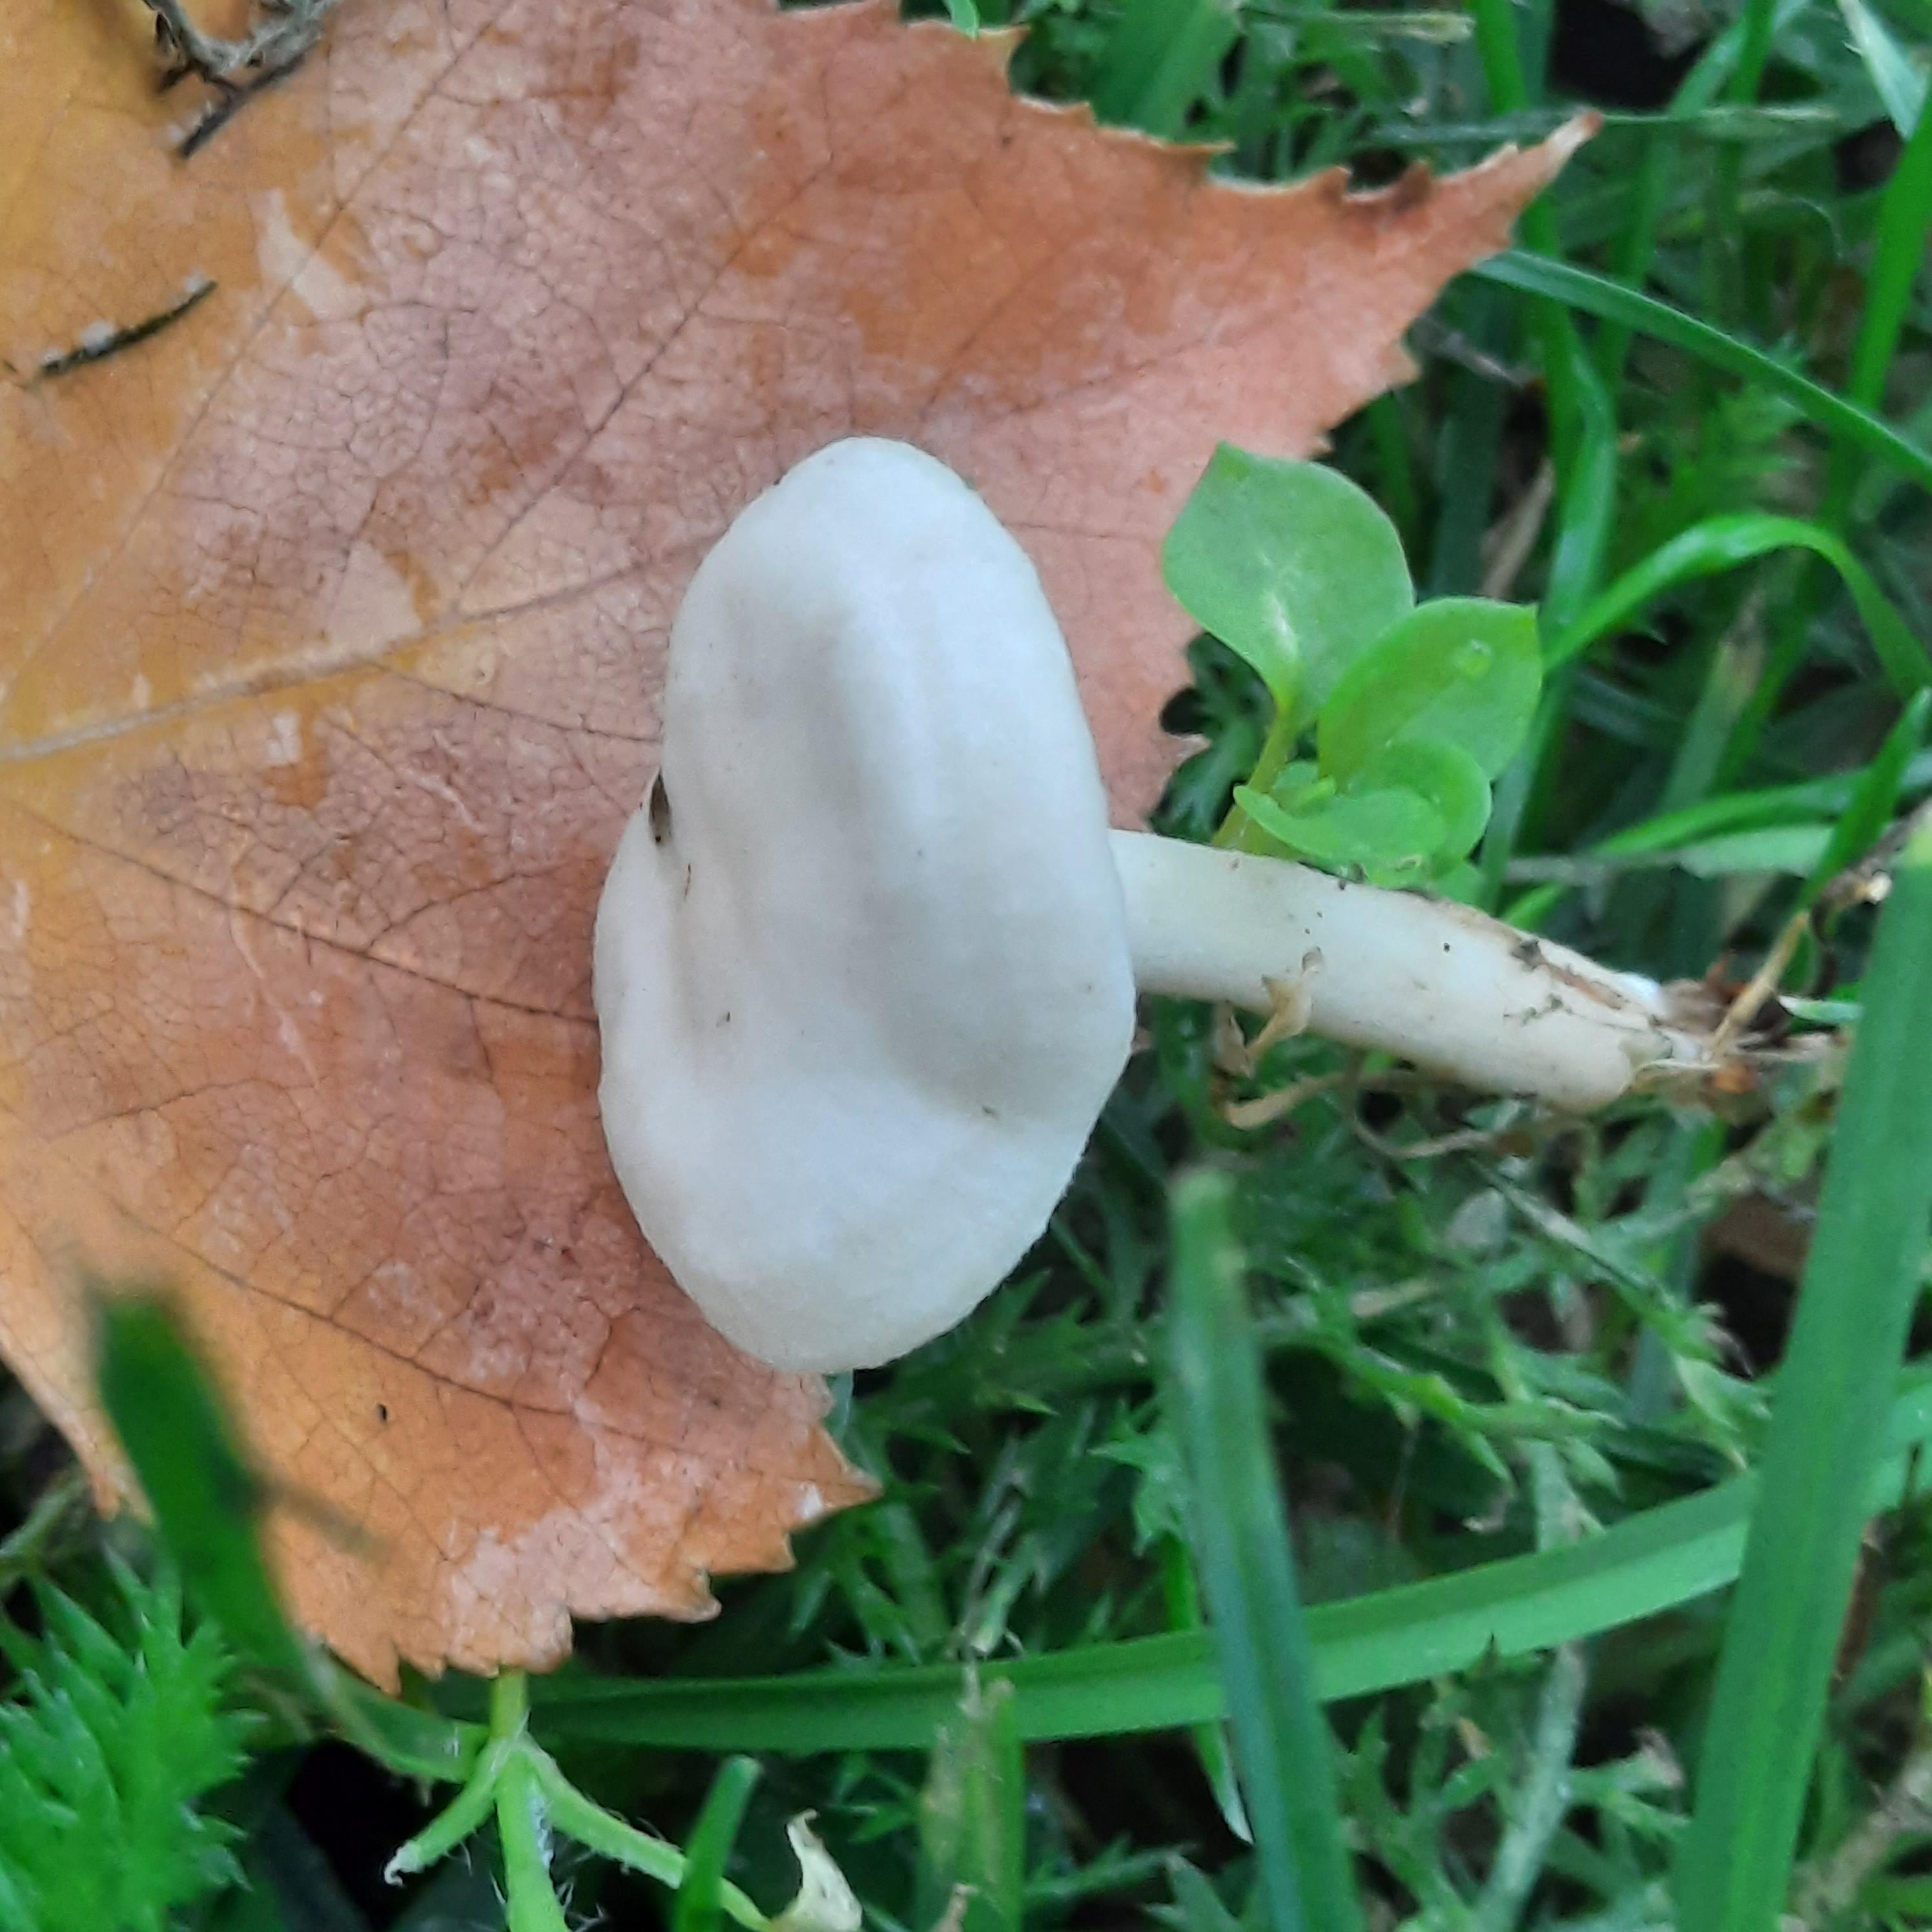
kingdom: Fungi
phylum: Basidiomycota
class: Agaricomycetes
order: Agaricales
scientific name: Agaricales
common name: champignonordenen
